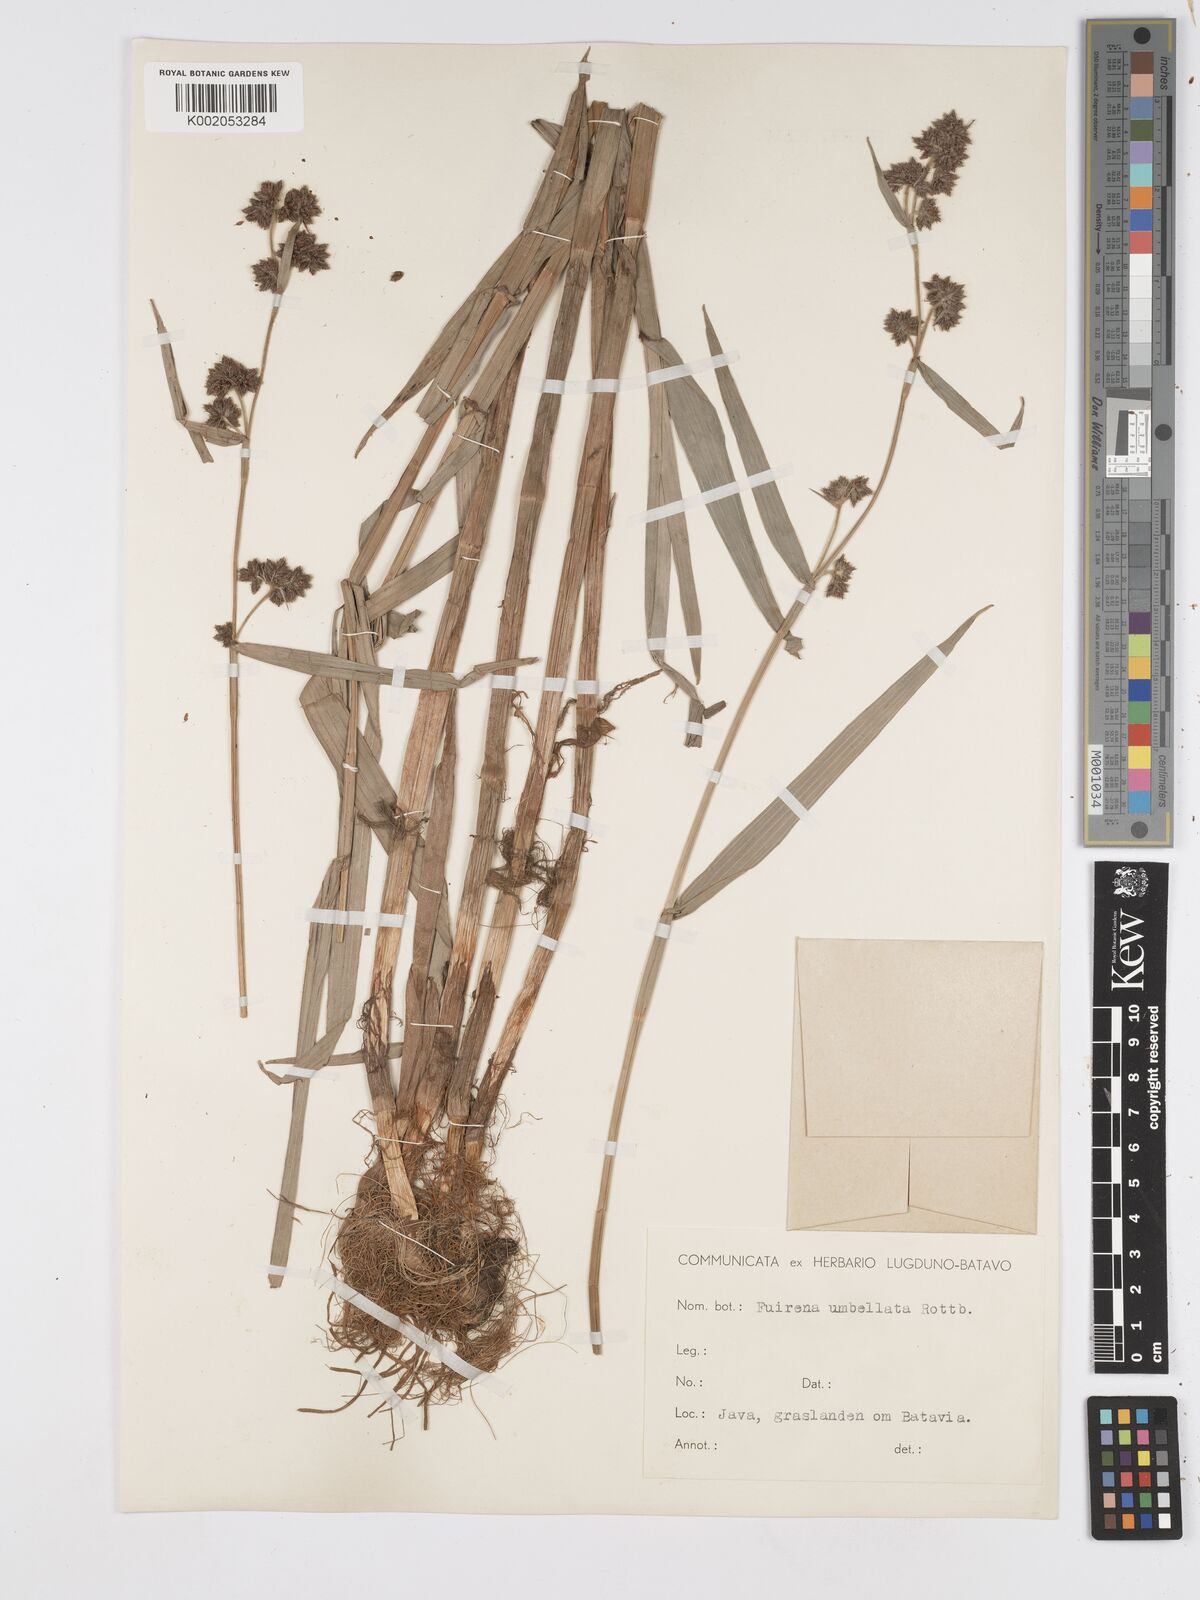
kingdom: Plantae
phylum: Tracheophyta
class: Liliopsida
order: Poales
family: Cyperaceae
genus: Fuirena
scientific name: Fuirena umbellata
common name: Yefen
